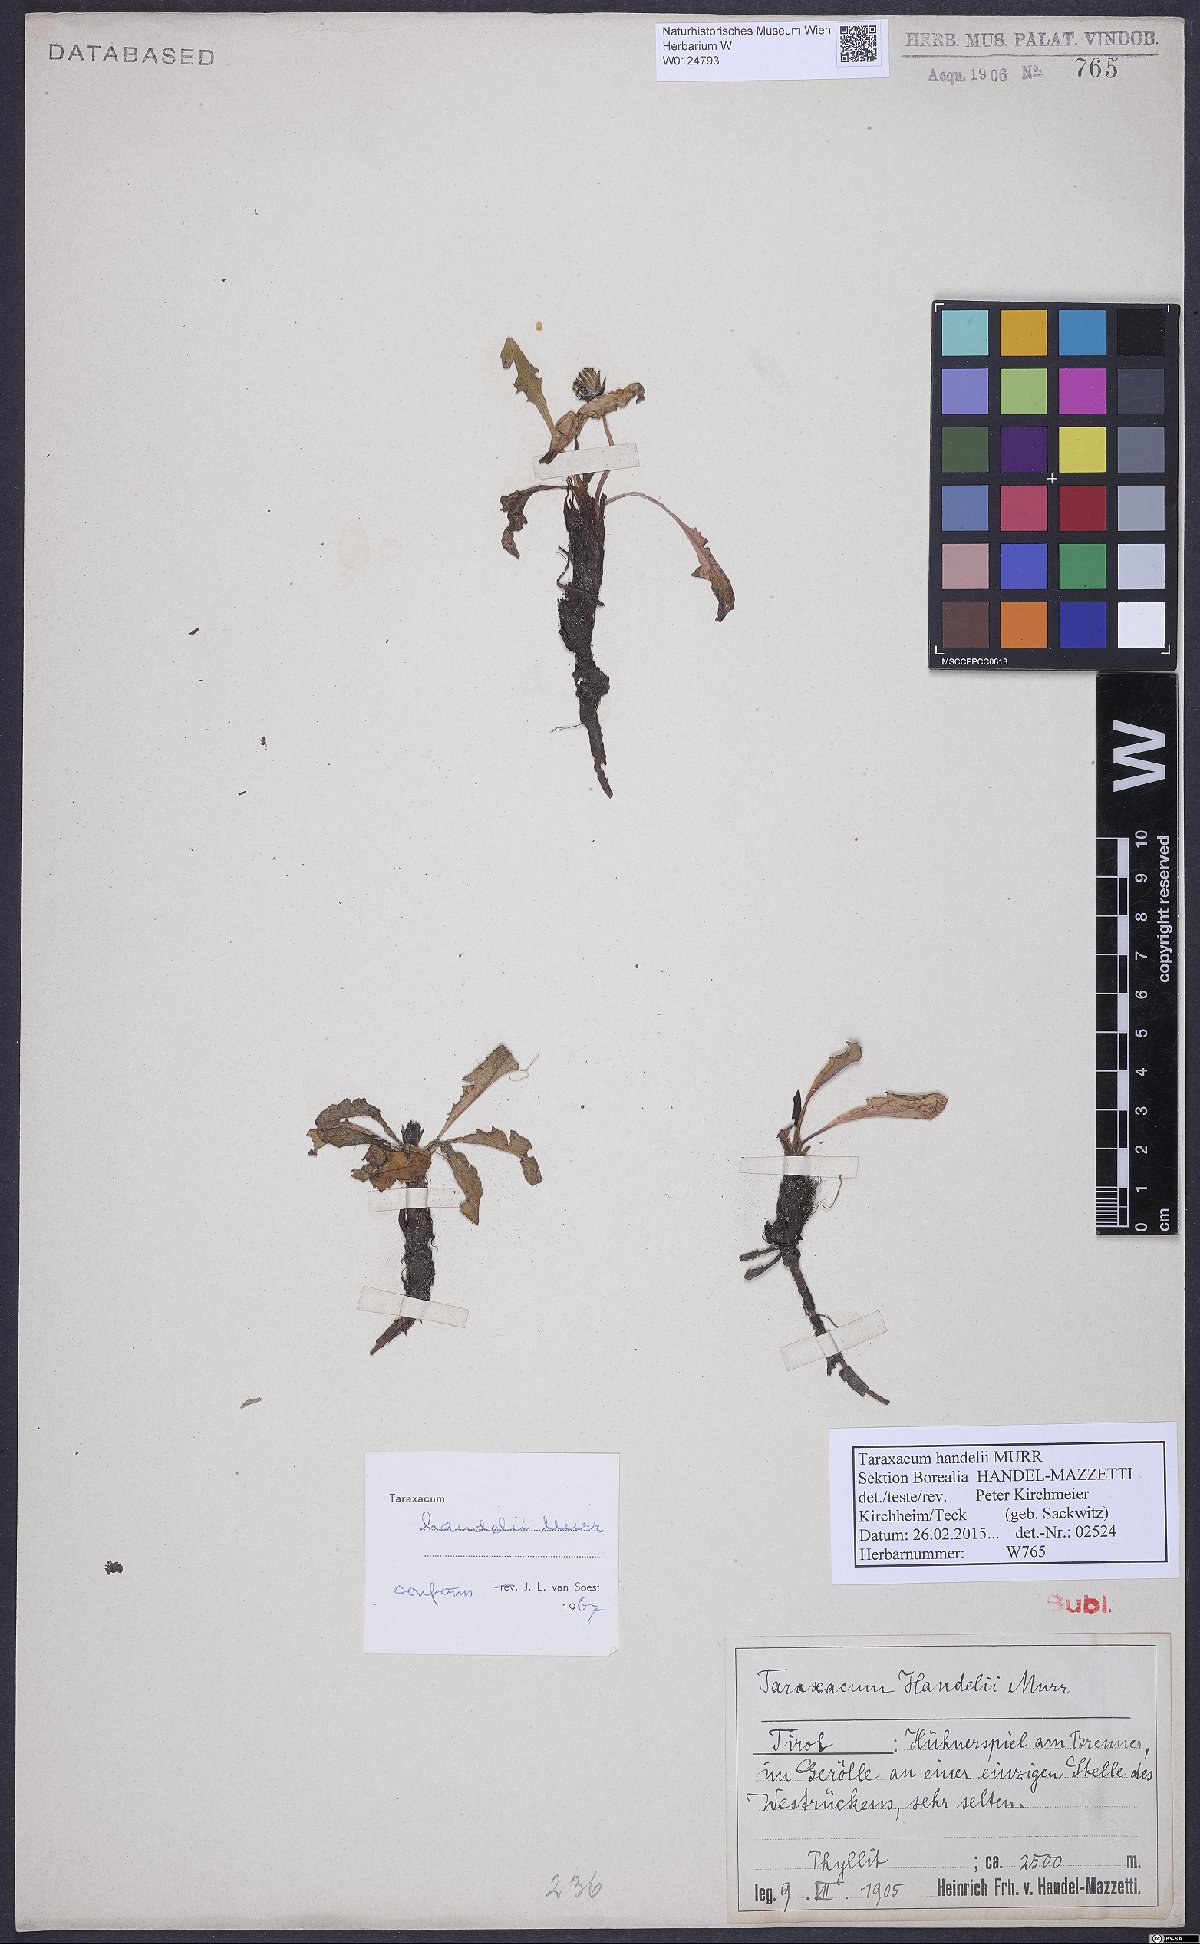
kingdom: Plantae
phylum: Tracheophyta
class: Magnoliopsida
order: Asterales
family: Asteraceae
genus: Taraxacum
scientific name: Taraxacum handelii
